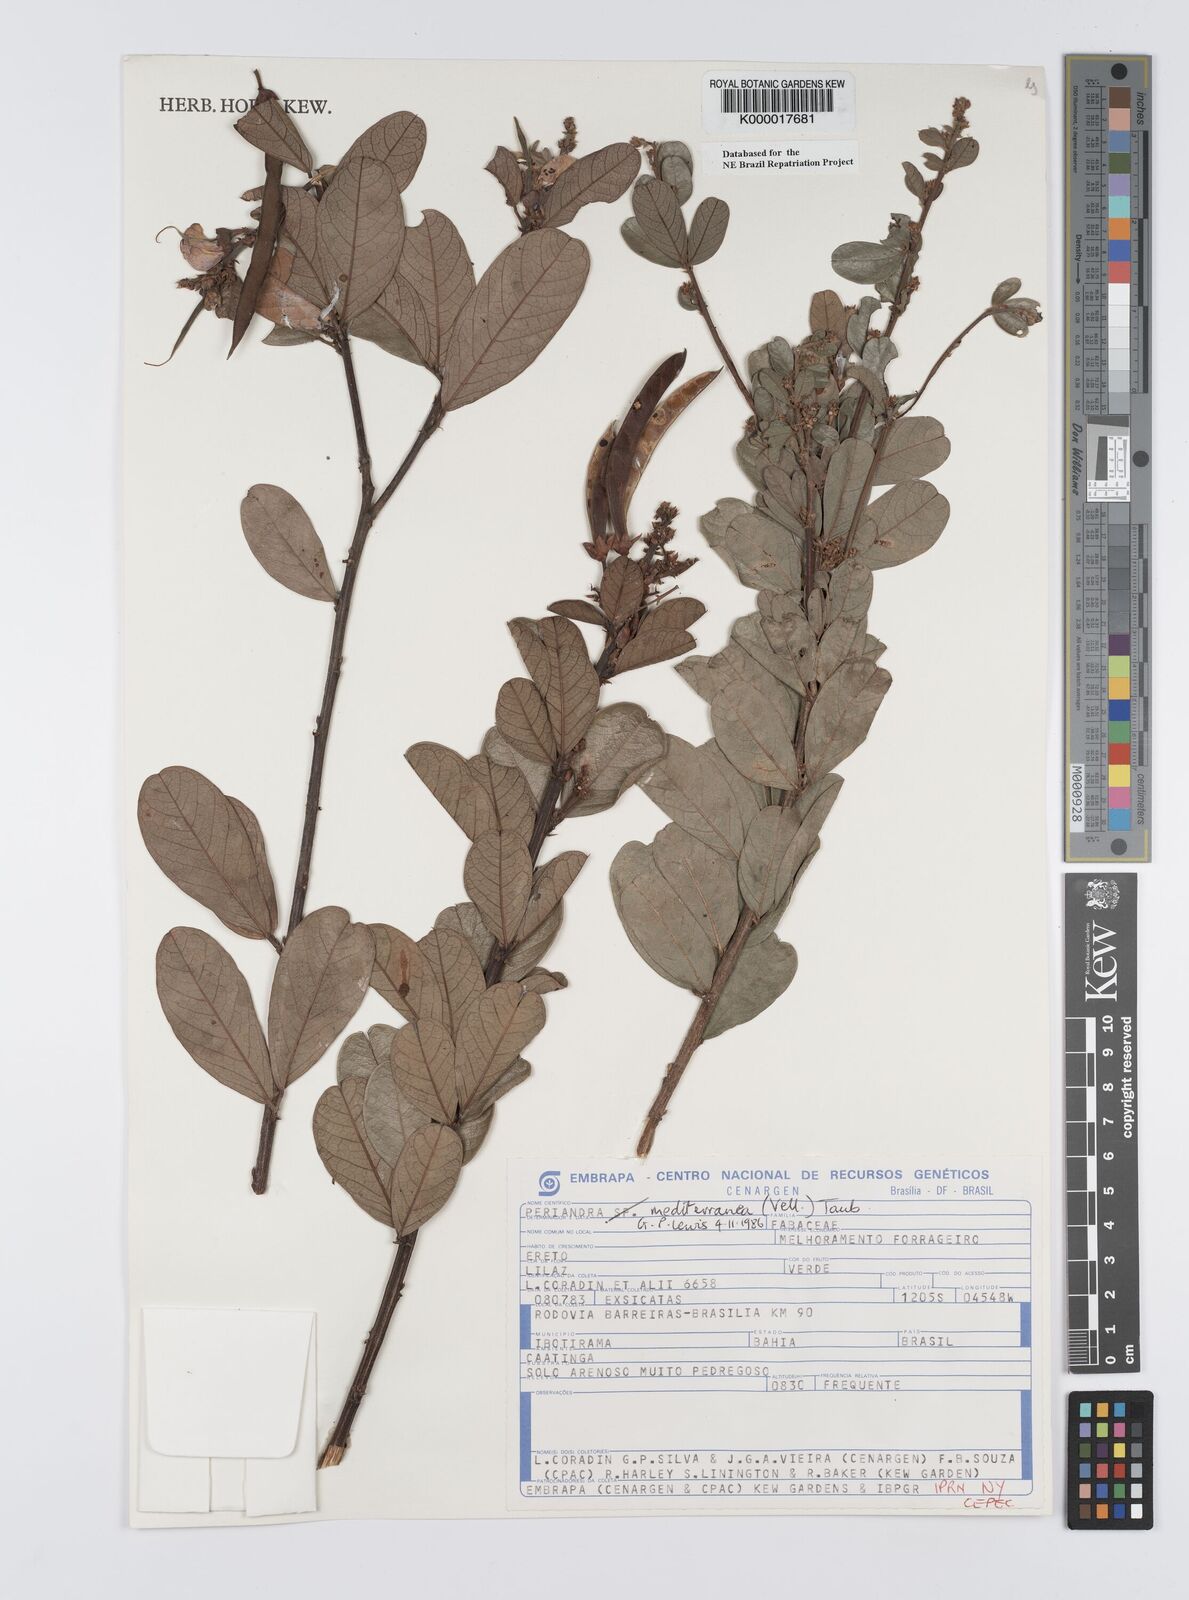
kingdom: Plantae
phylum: Tracheophyta
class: Magnoliopsida
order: Fabales
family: Fabaceae
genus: Periandra
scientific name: Periandra mediterranea
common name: Brazilian licorice
